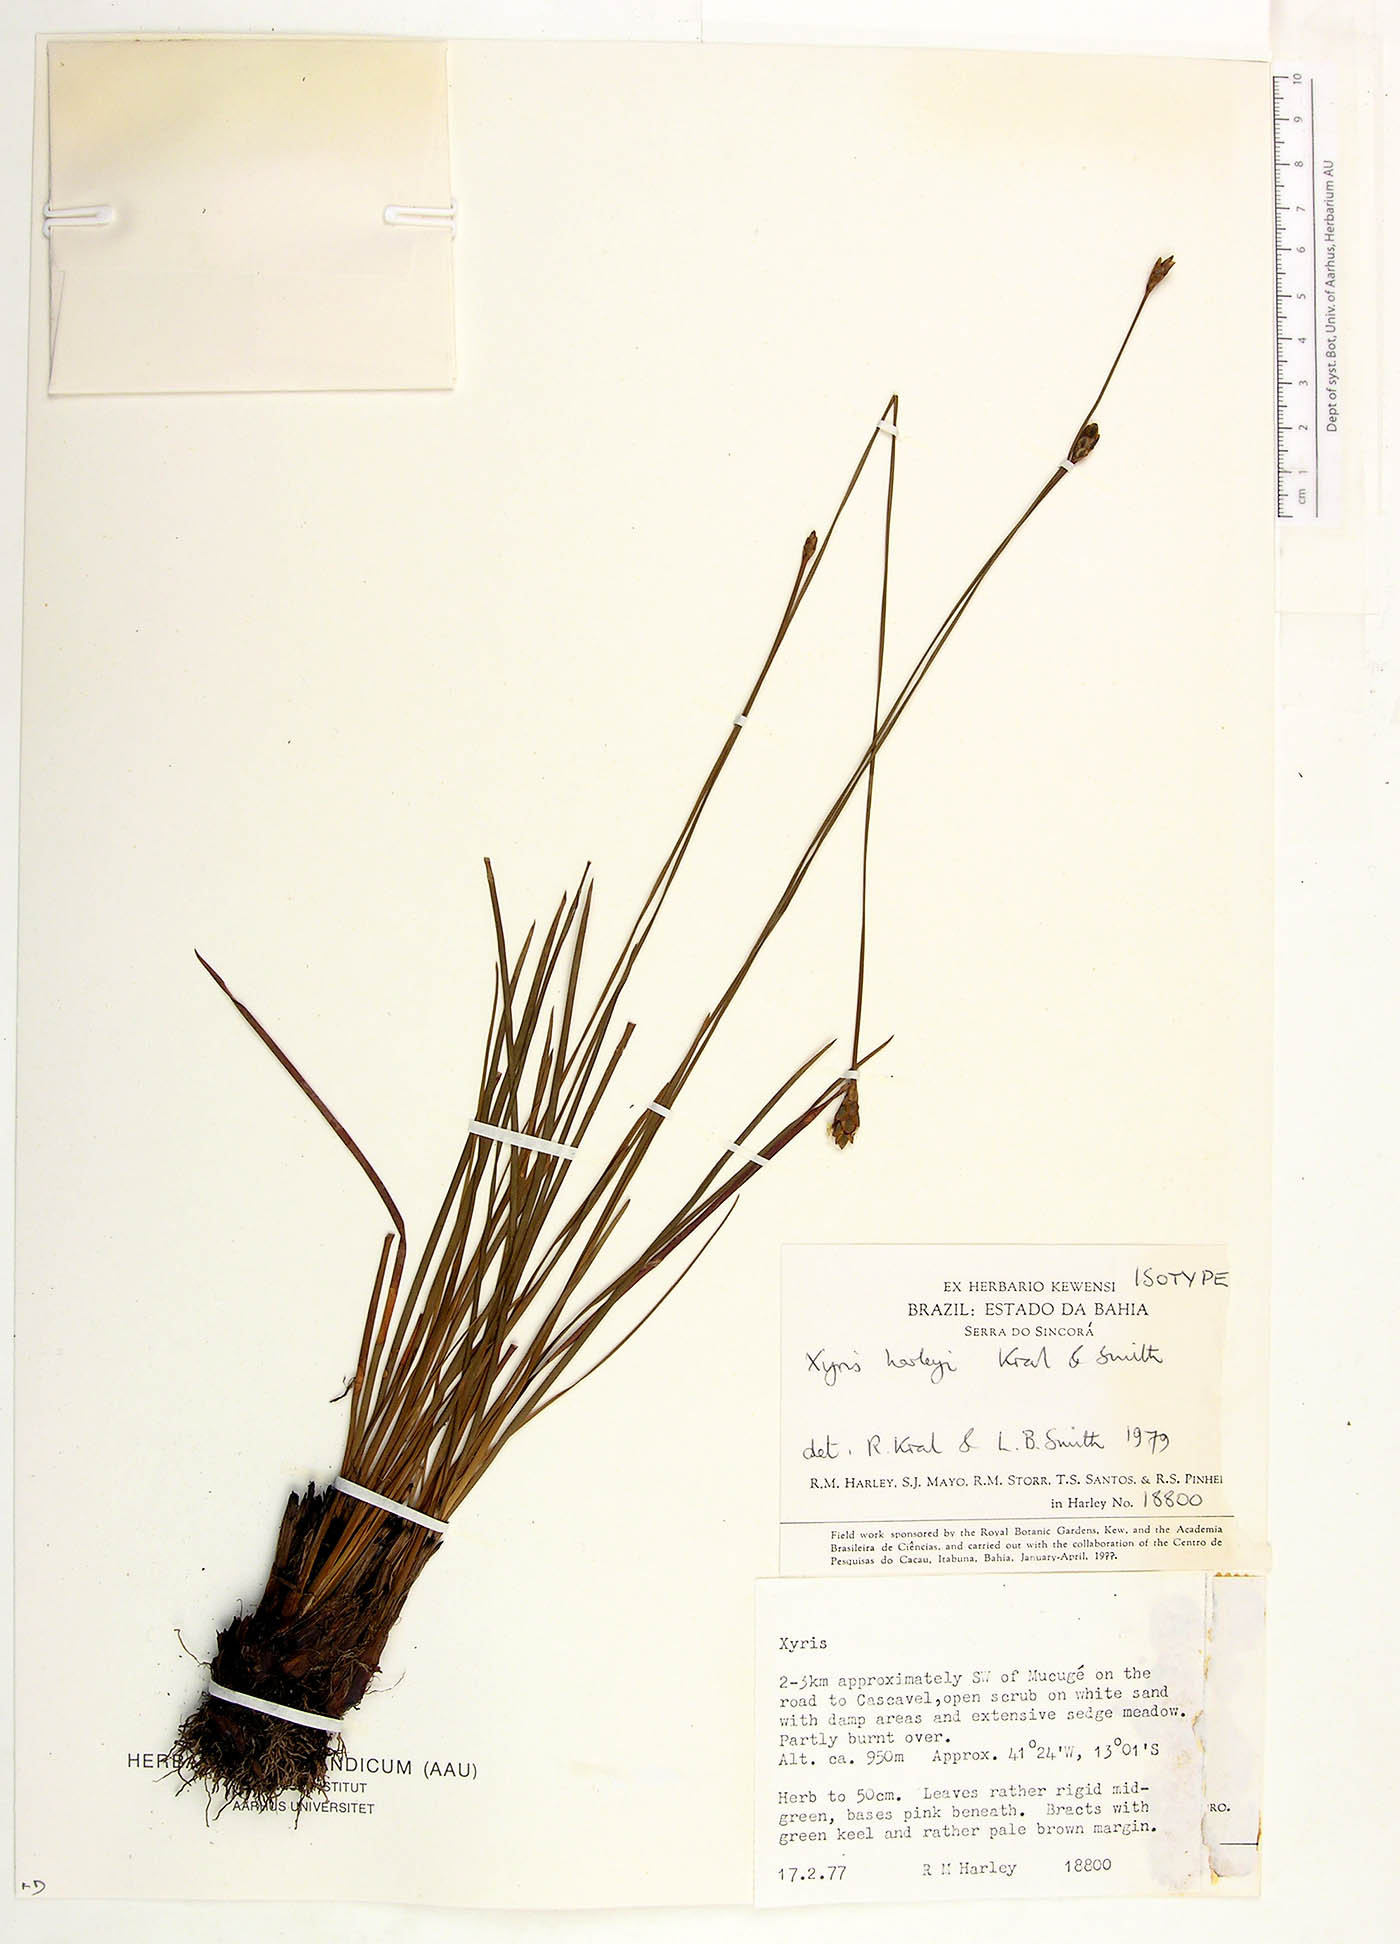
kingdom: Plantae
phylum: Tracheophyta
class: Liliopsida
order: Poales
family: Xyridaceae
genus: Xyris
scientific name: Xyris harleyi
